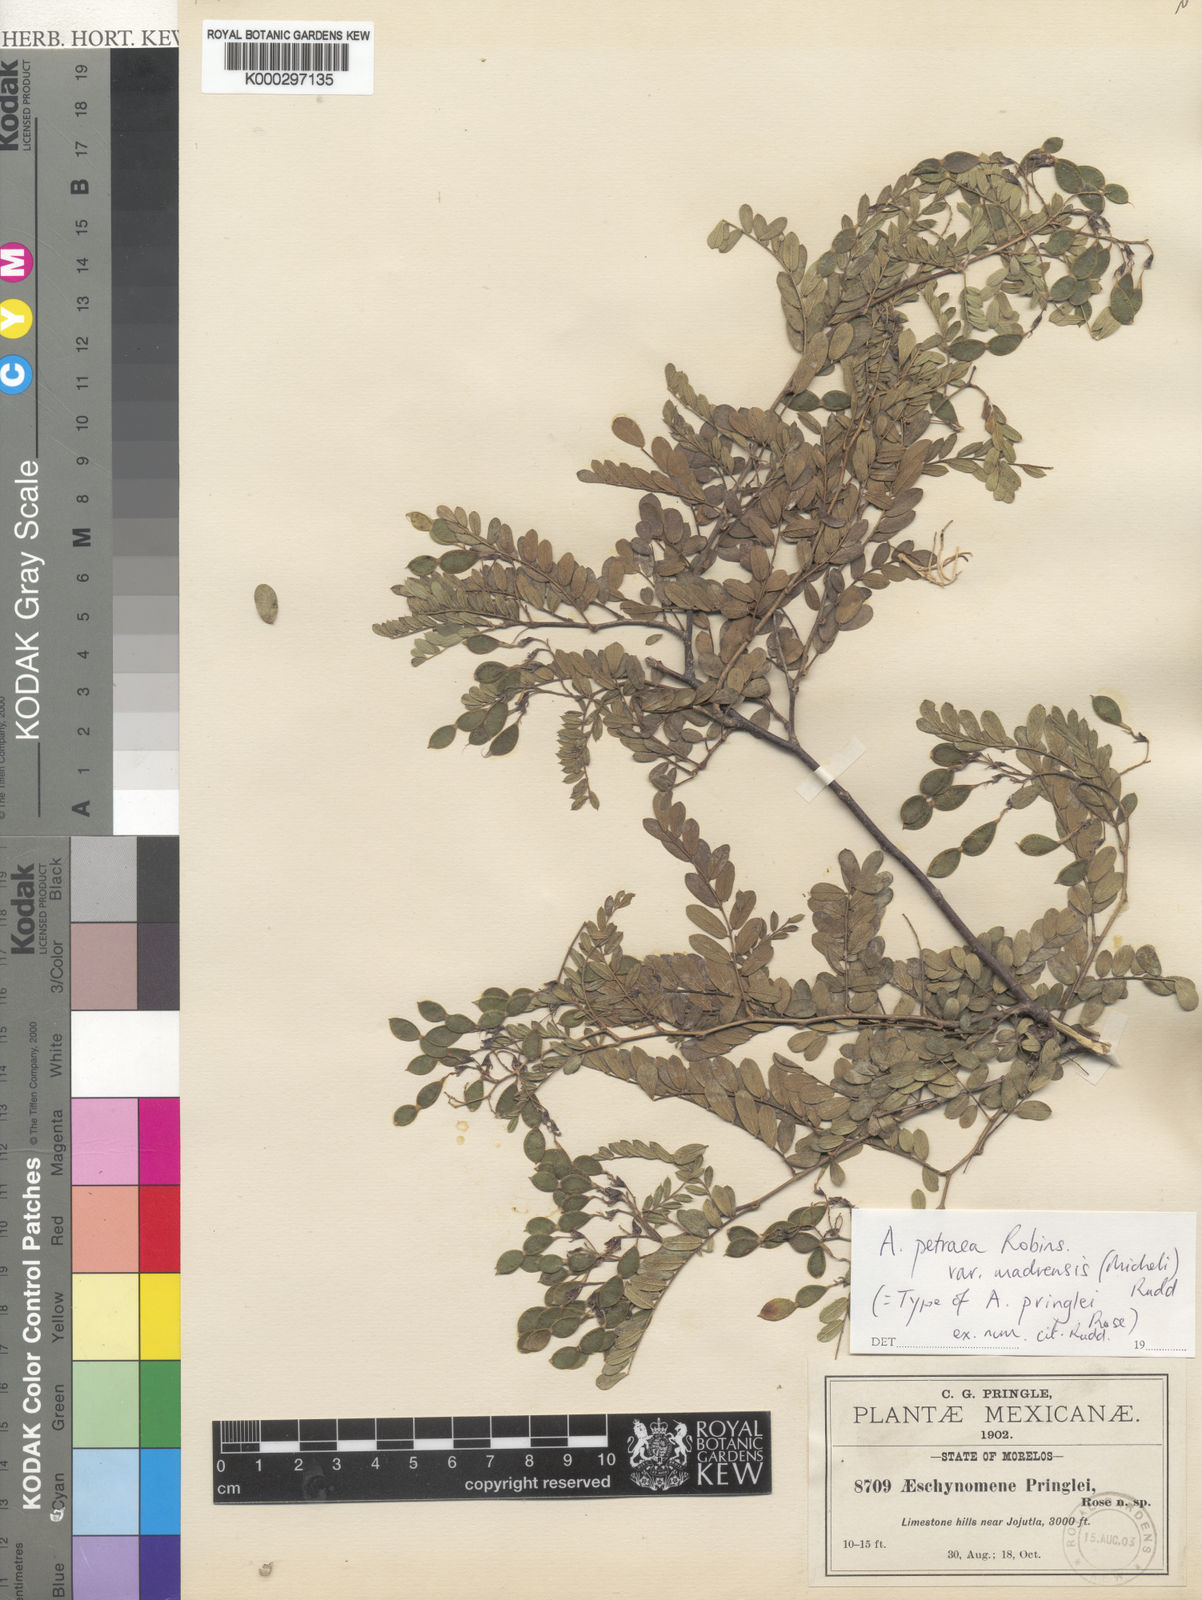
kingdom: Plantae
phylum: Tracheophyta
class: Magnoliopsida
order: Fabales
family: Fabaceae
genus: Ctenodon
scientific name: Ctenodon petraeus
